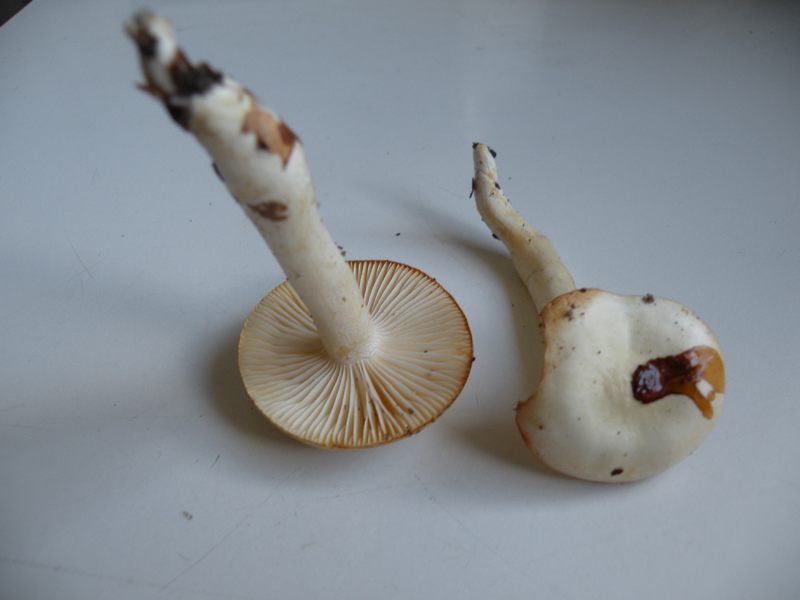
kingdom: Fungi
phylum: Basidiomycota
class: Agaricomycetes
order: Agaricales
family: Hygrophoraceae
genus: Hygrophorus
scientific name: Hygrophorus discoxanthus
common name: ildelugtende sneglehat
